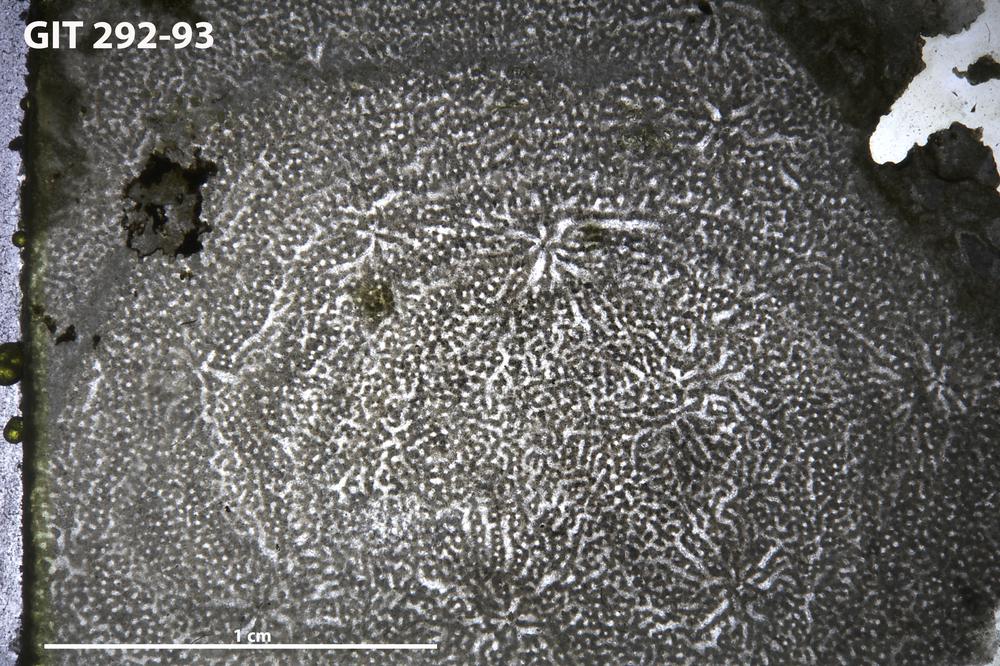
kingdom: Animalia
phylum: Porifera
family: Stromatoporidae
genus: Stromatopora
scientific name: Stromatopora
